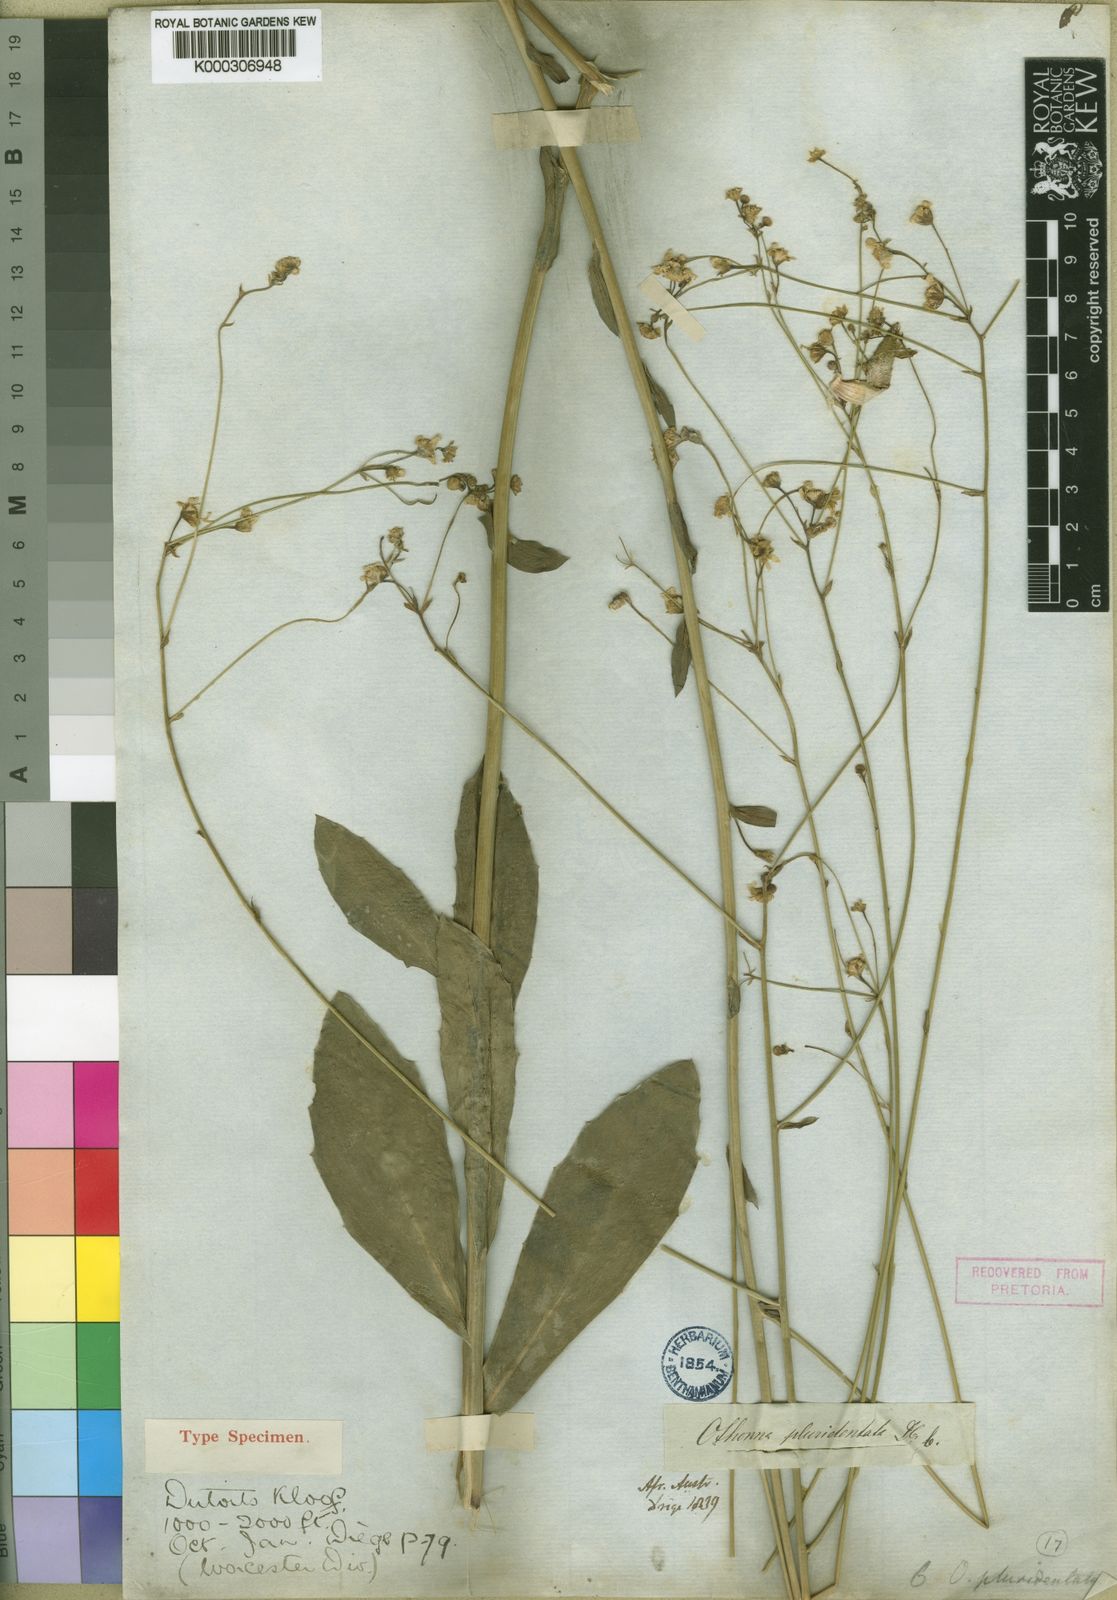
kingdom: Plantae
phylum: Tracheophyta
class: Magnoliopsida
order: Asterales
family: Asteraceae
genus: Othonna
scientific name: Othonna pluridentata
